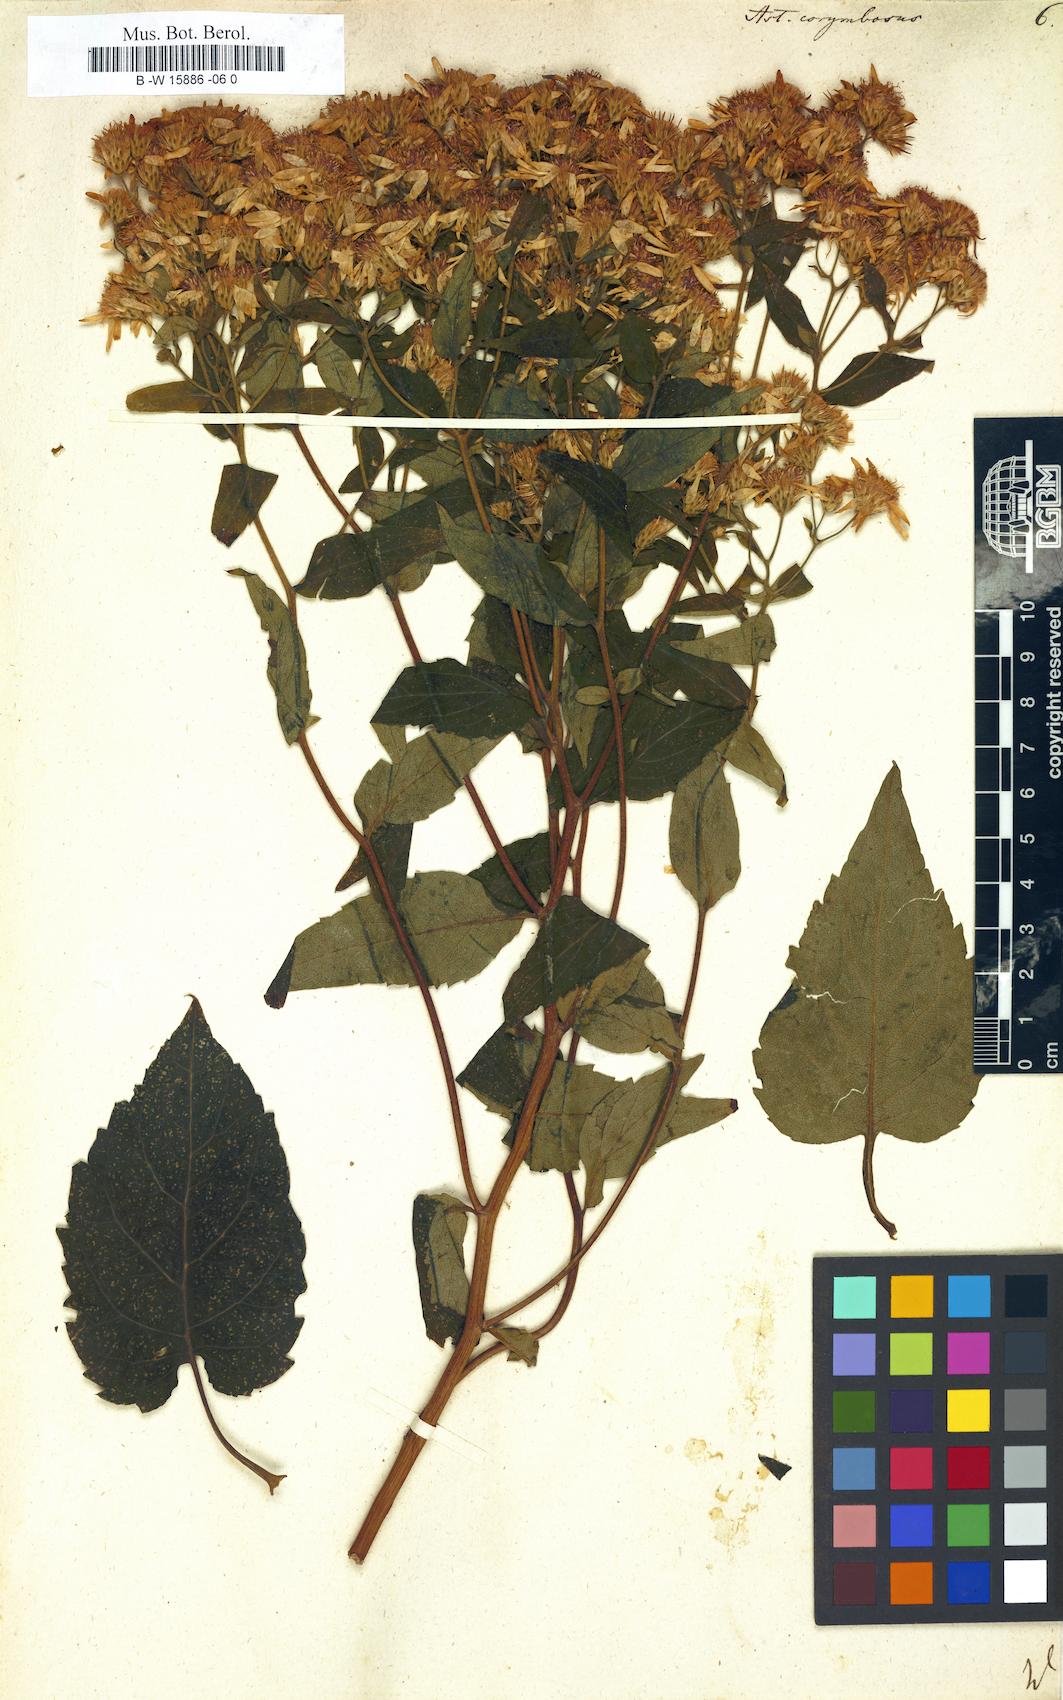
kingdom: Plantae
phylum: Tracheophyta
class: Magnoliopsida
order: Asterales
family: Asteraceae
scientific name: Asteraceae
